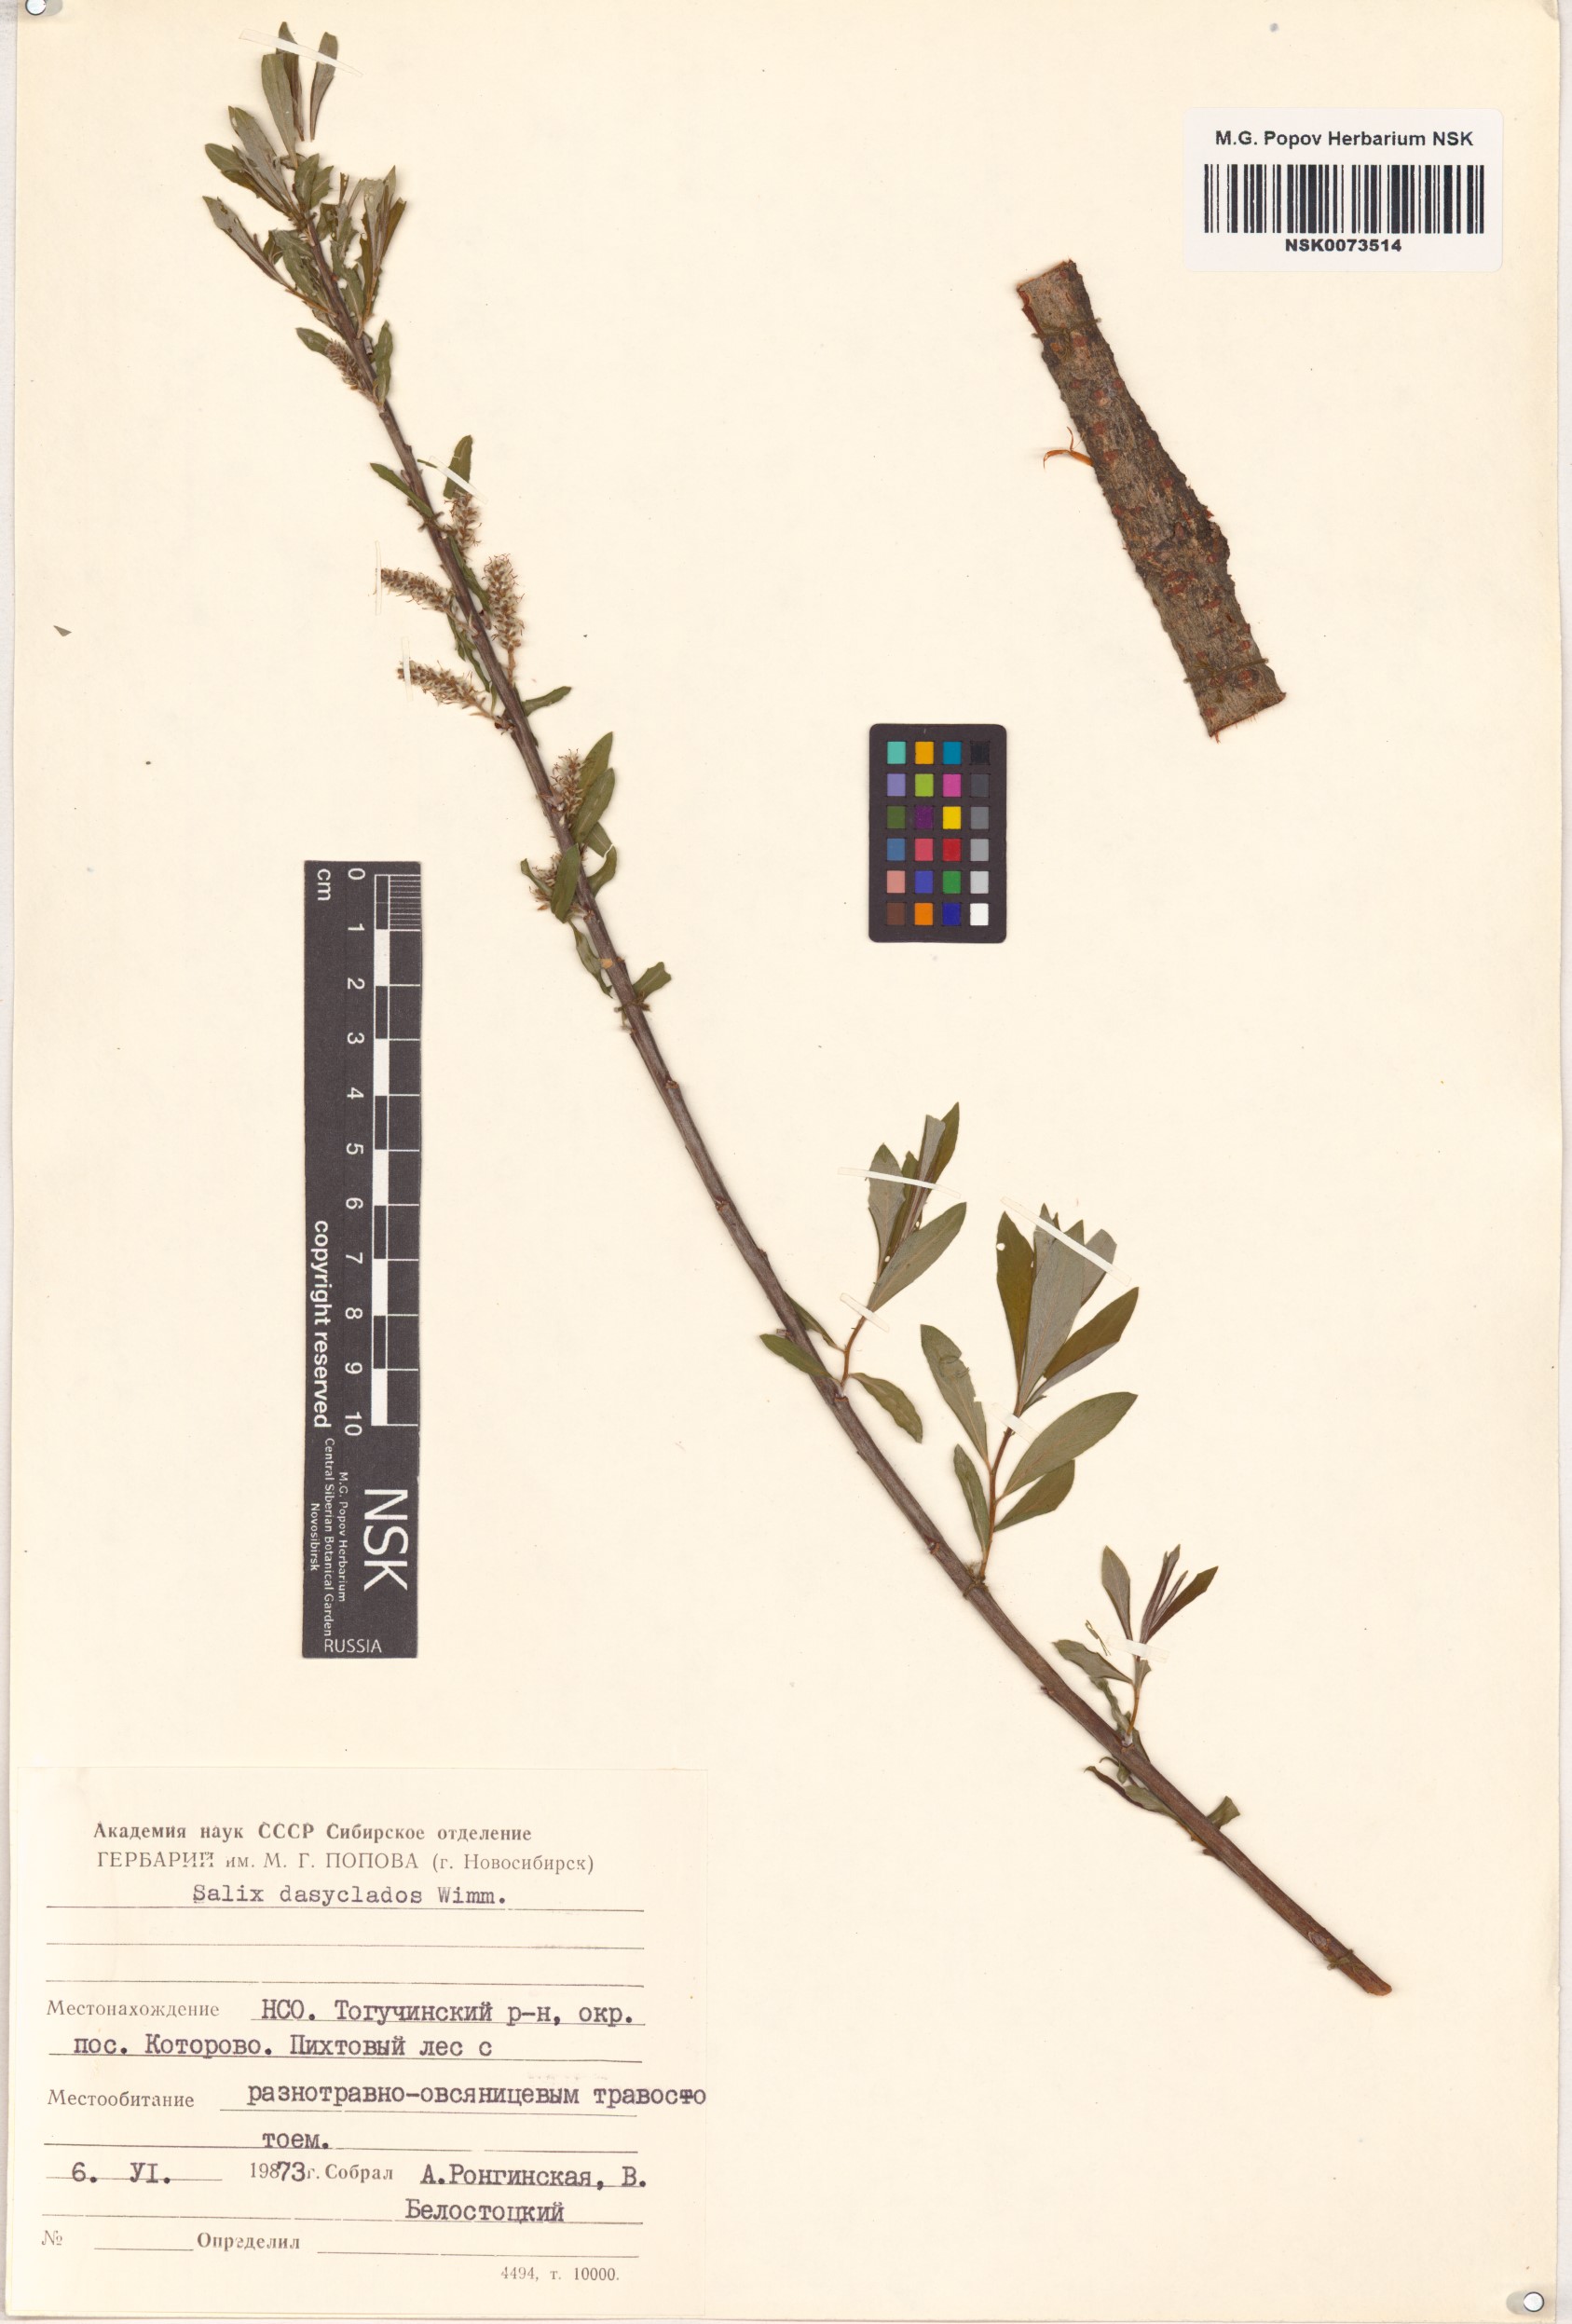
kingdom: Plantae
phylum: Tracheophyta
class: Magnoliopsida
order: Malpighiales
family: Salicaceae
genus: Salix
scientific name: Salix gmelinii
